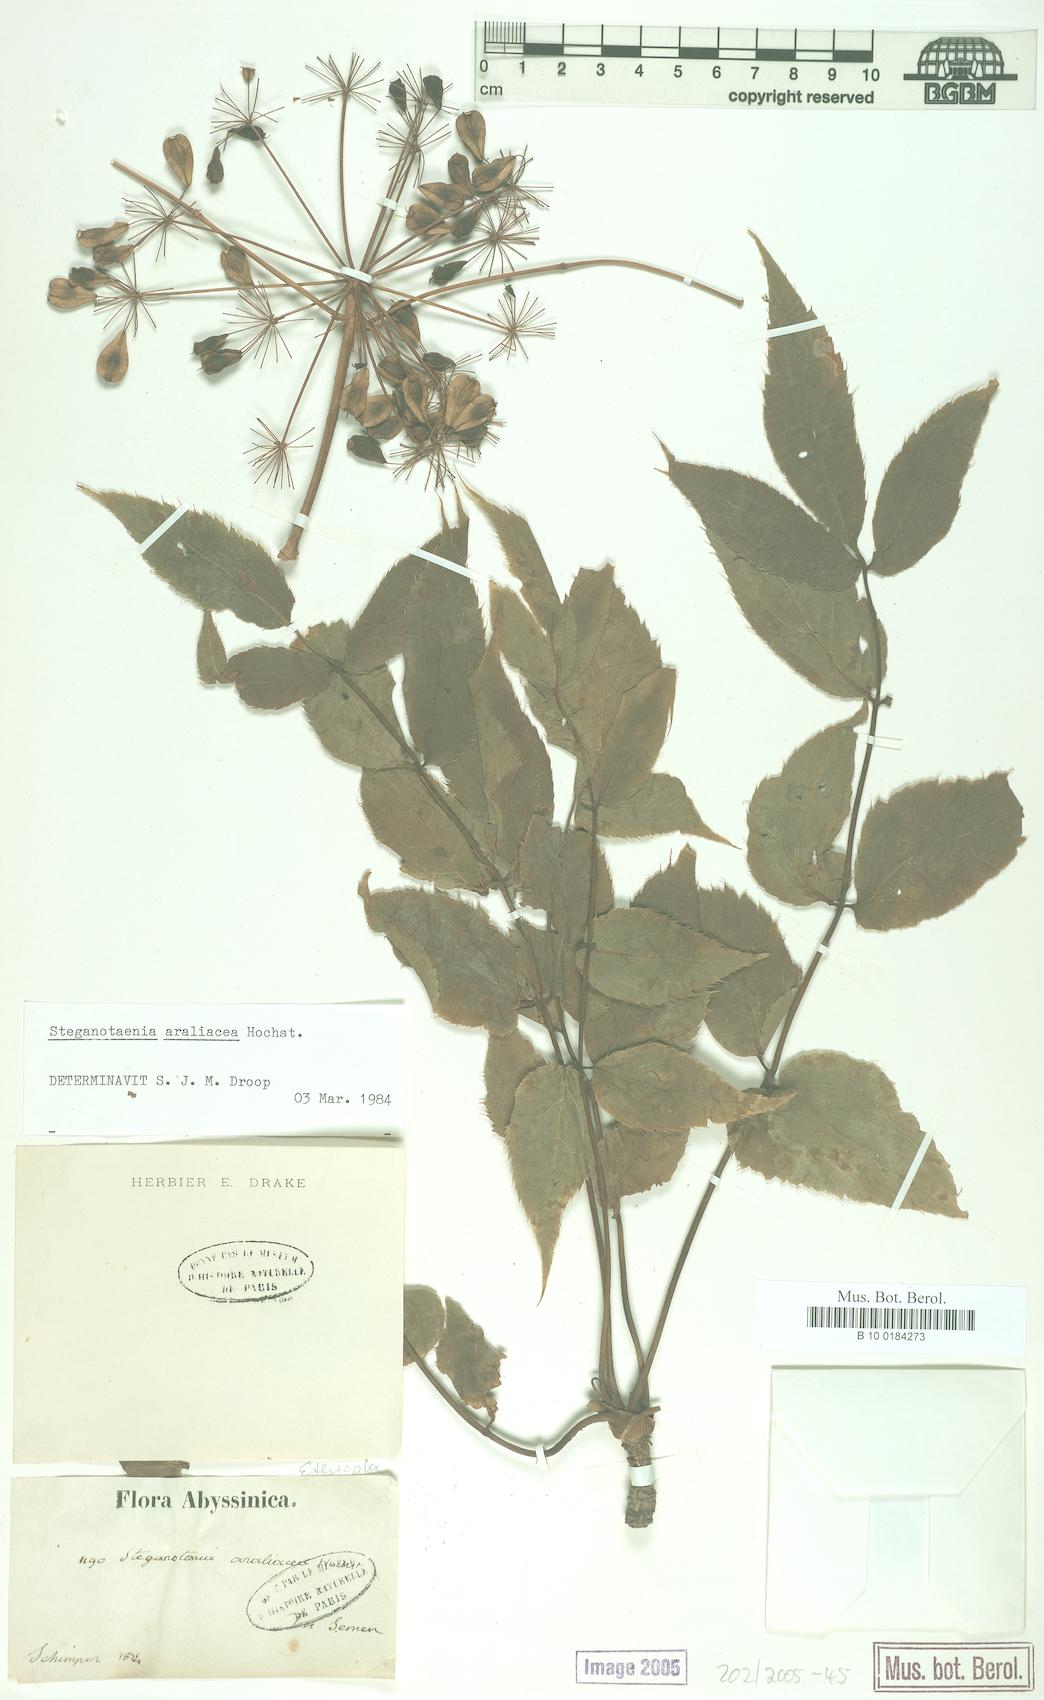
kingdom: Plantae
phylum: Tracheophyta
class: Magnoliopsida
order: Apiales
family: Apiaceae
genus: Steganotaenia
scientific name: Steganotaenia araliacea
